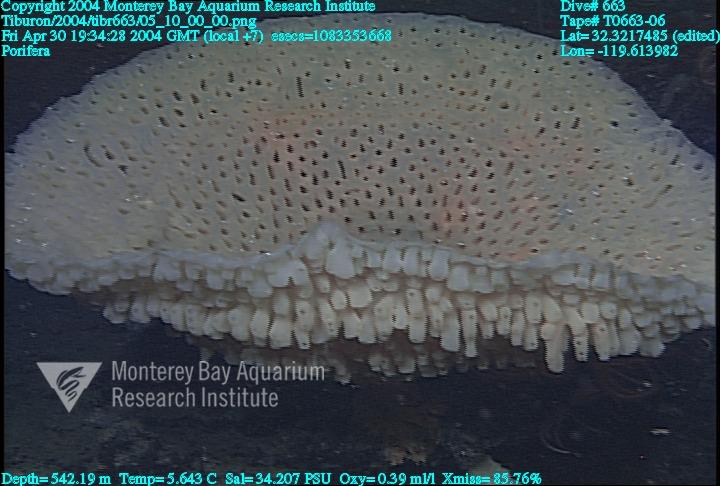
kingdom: Animalia
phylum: Porifera
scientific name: Porifera
